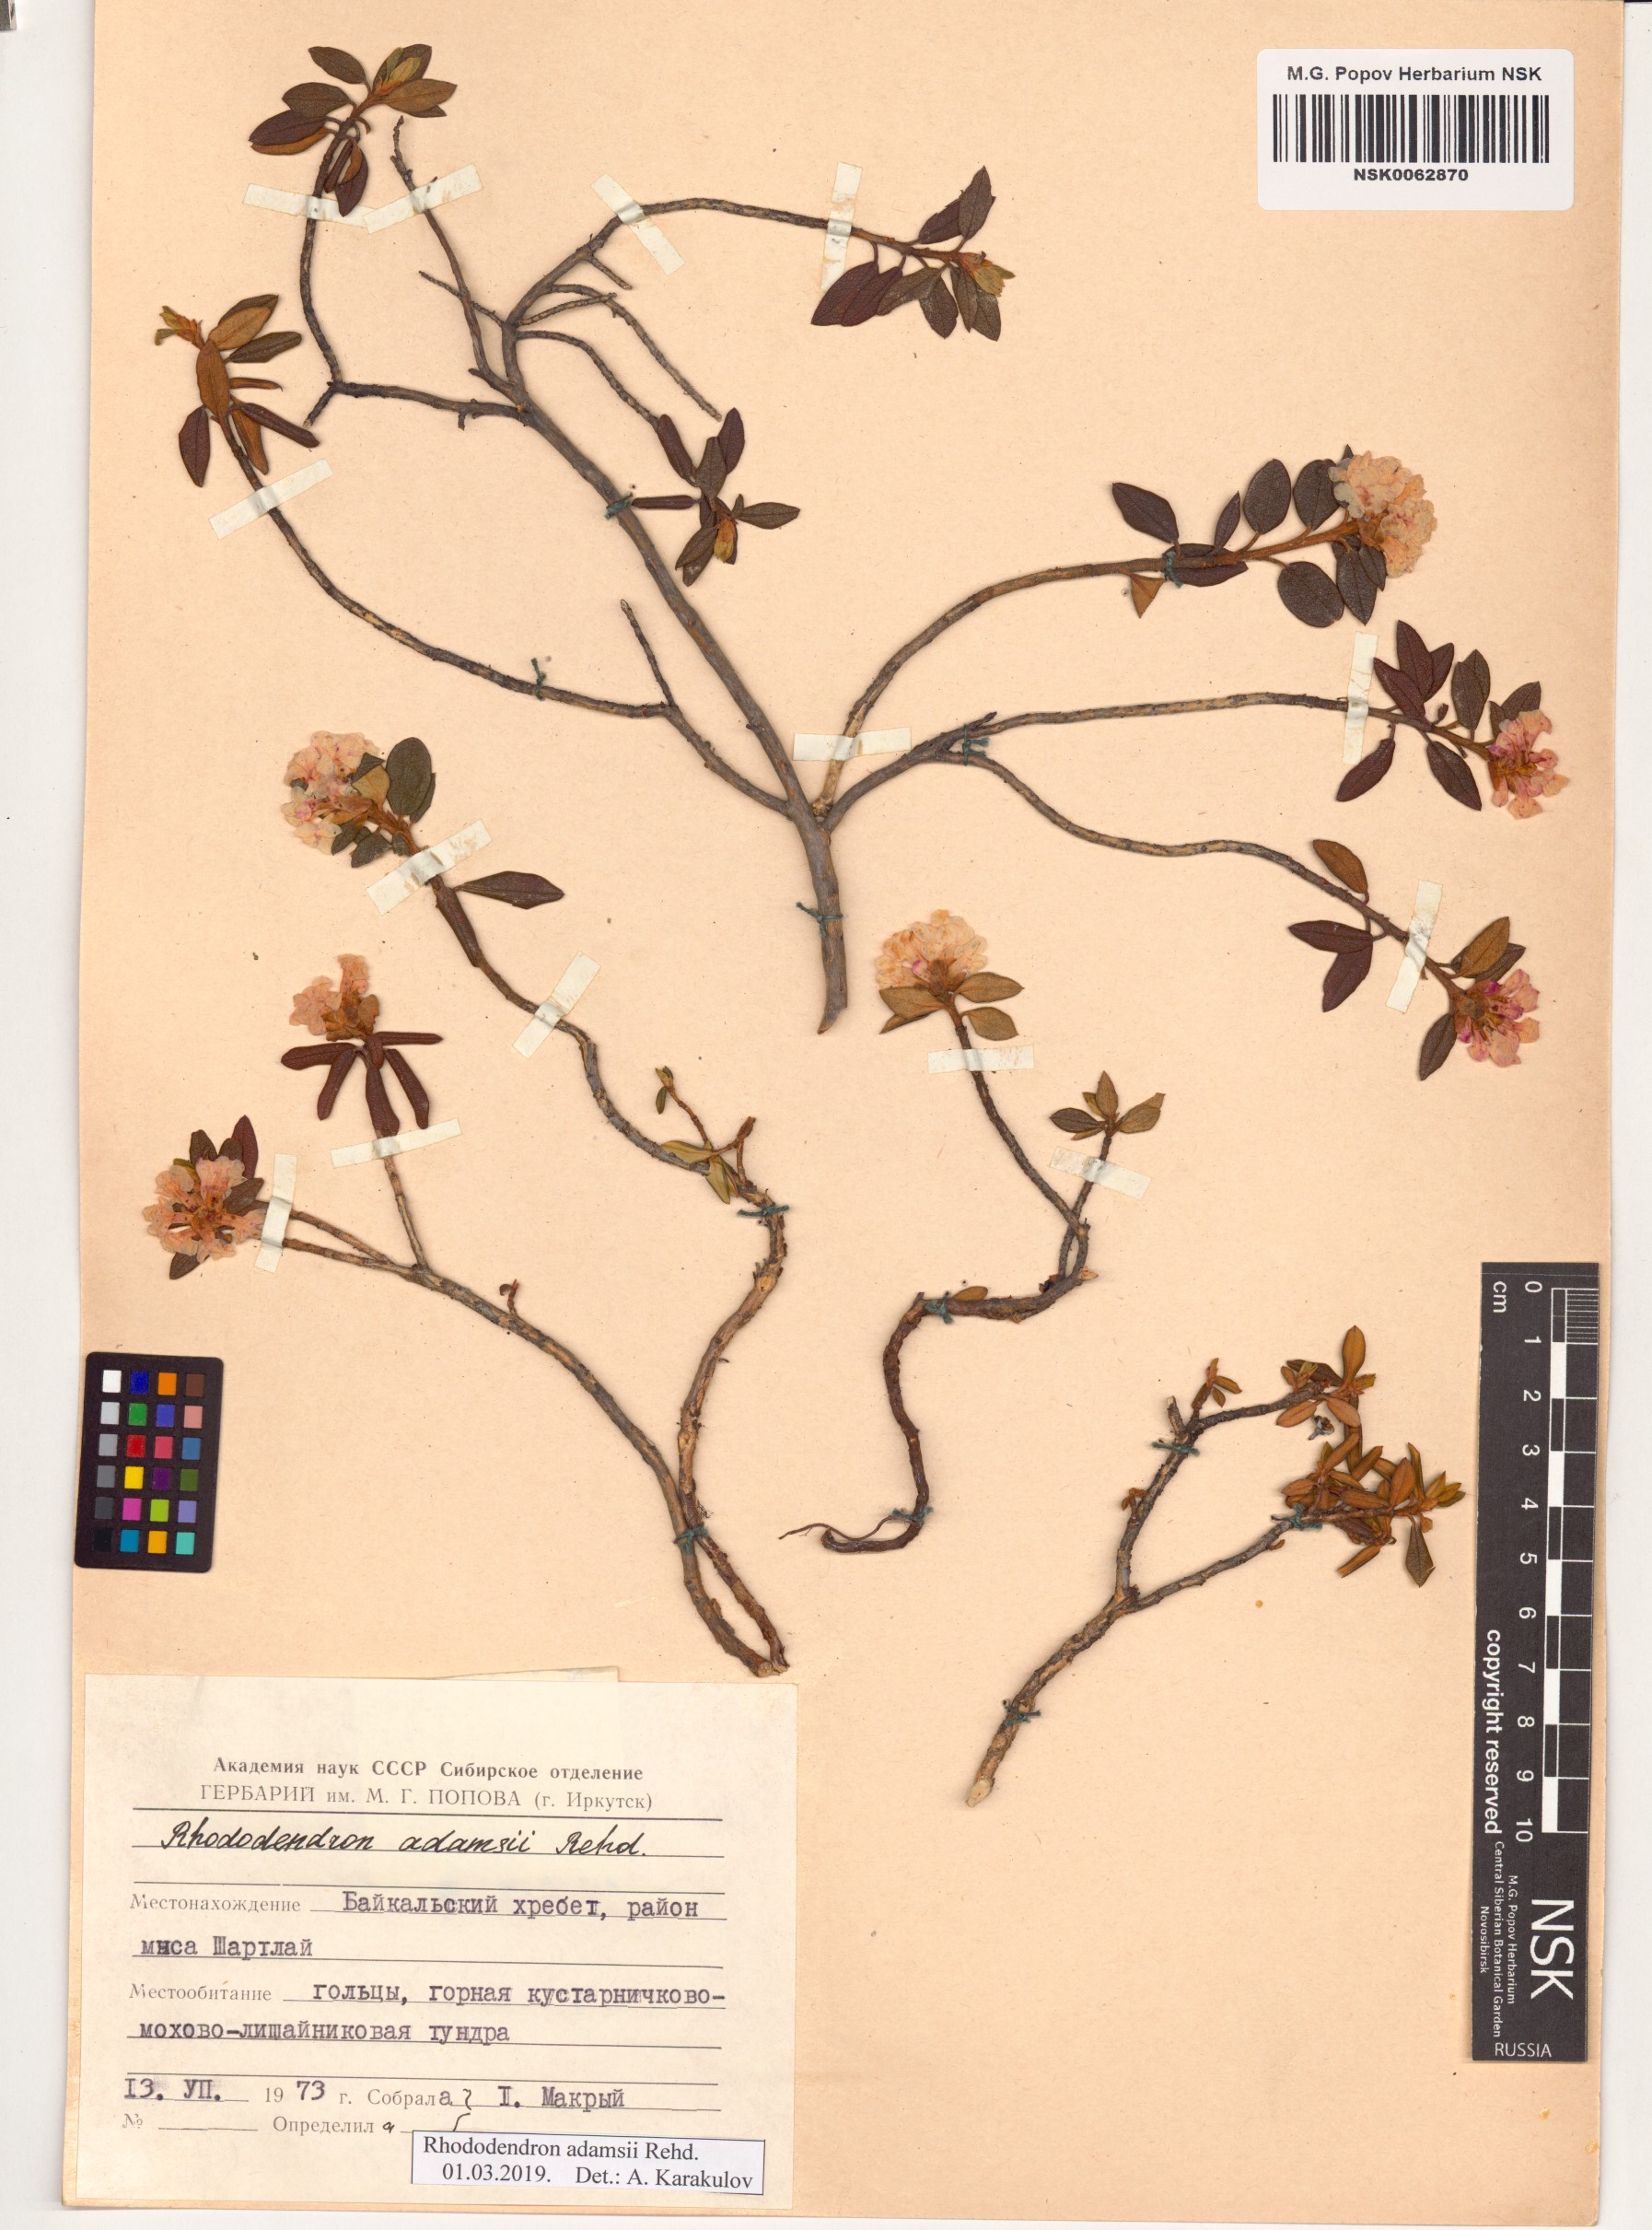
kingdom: Plantae
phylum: Tracheophyta
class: Magnoliopsida
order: Ericales
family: Ericaceae
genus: Rhododendron
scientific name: Rhododendron adamsii
